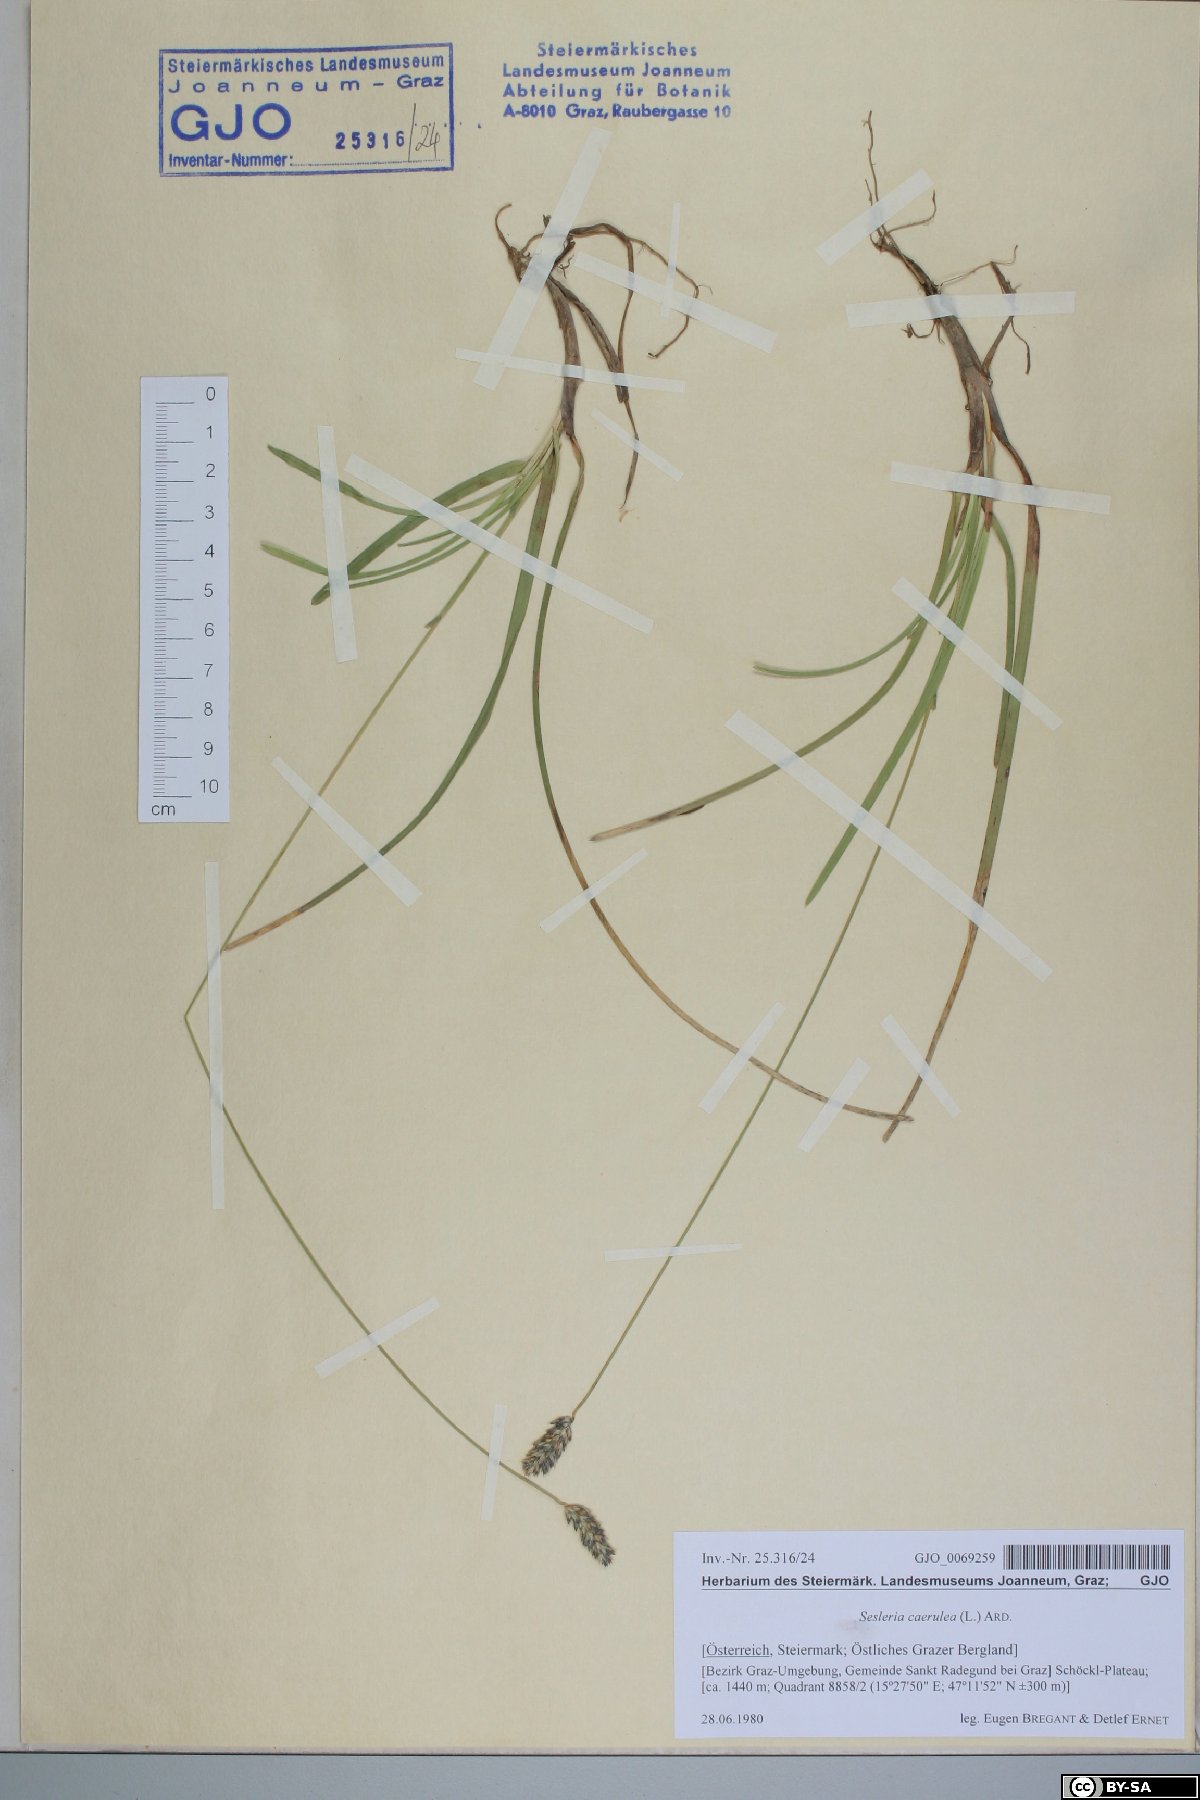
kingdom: Plantae
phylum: Tracheophyta
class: Liliopsida
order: Poales
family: Poaceae
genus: Sesleria
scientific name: Sesleria caerulea
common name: Blue moor-grass
